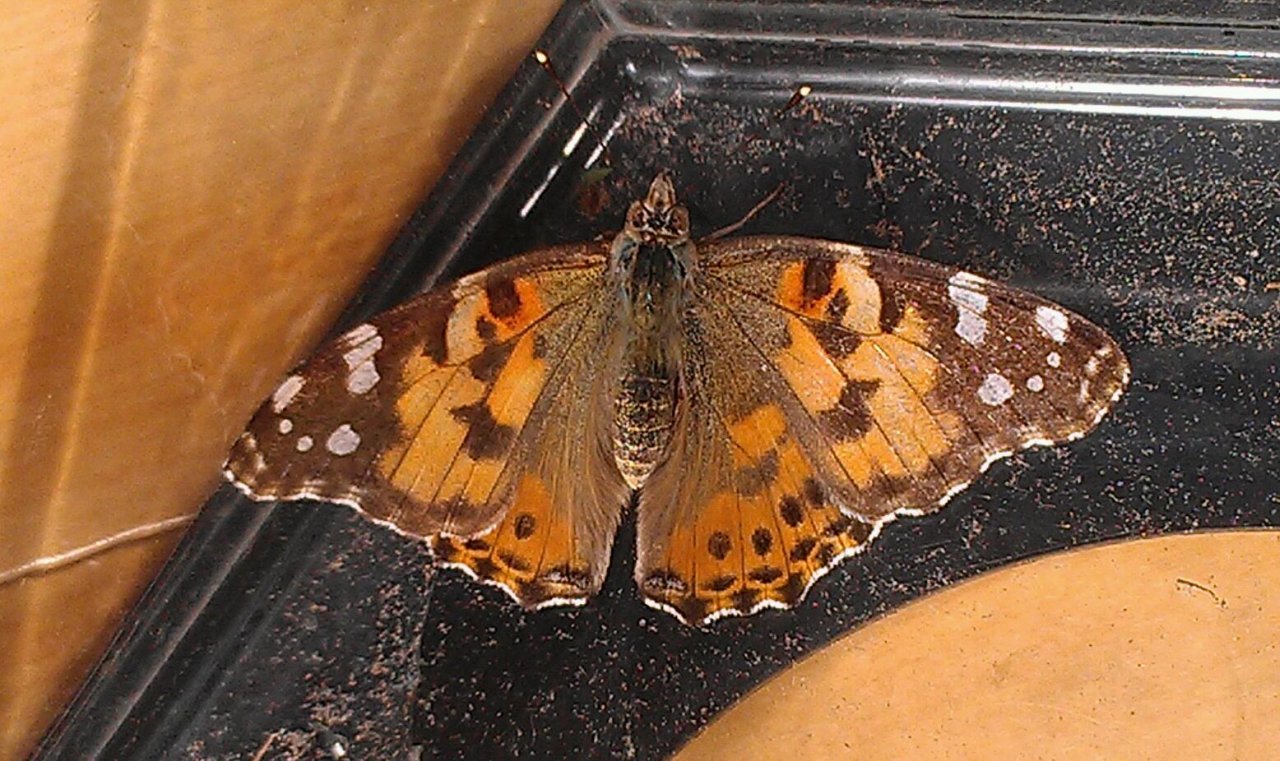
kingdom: Animalia
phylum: Arthropoda
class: Insecta
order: Lepidoptera
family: Nymphalidae
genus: Vanessa
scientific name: Vanessa cardui
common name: Painted Lady
